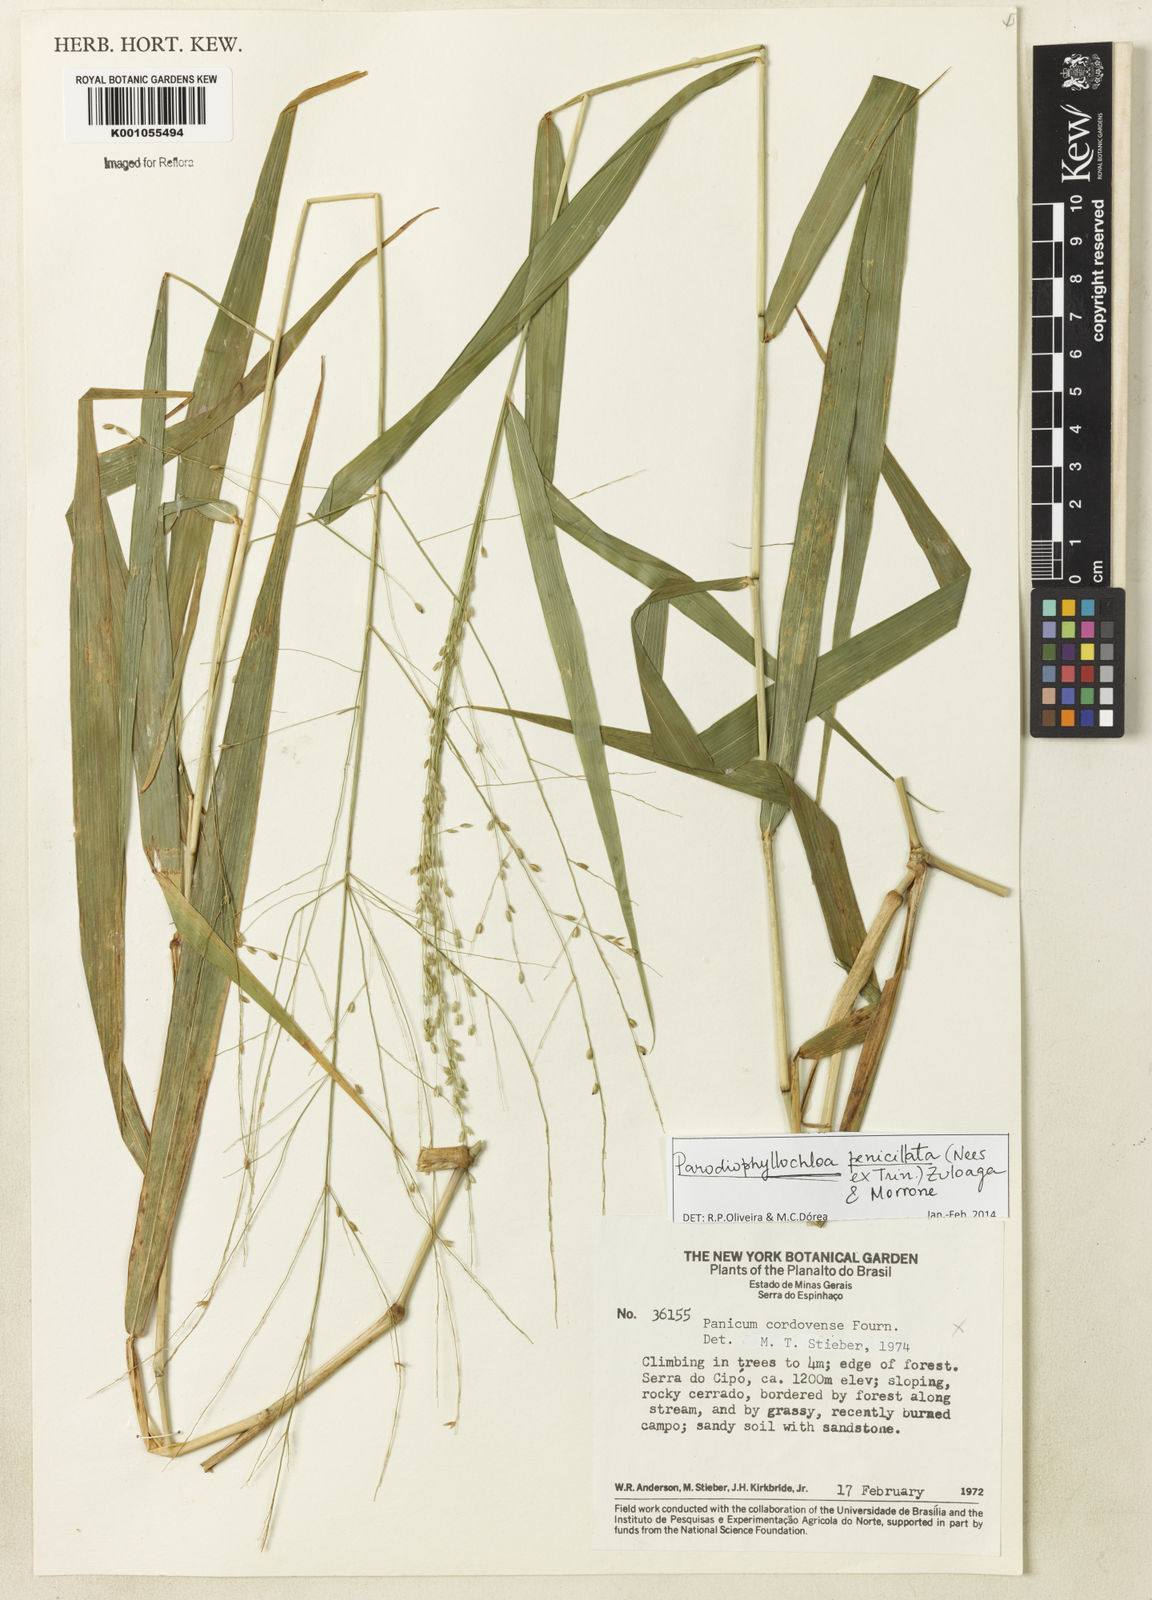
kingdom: Plantae
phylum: Tracheophyta
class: Liliopsida
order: Poales
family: Poaceae
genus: Panicum
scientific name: Panicum
